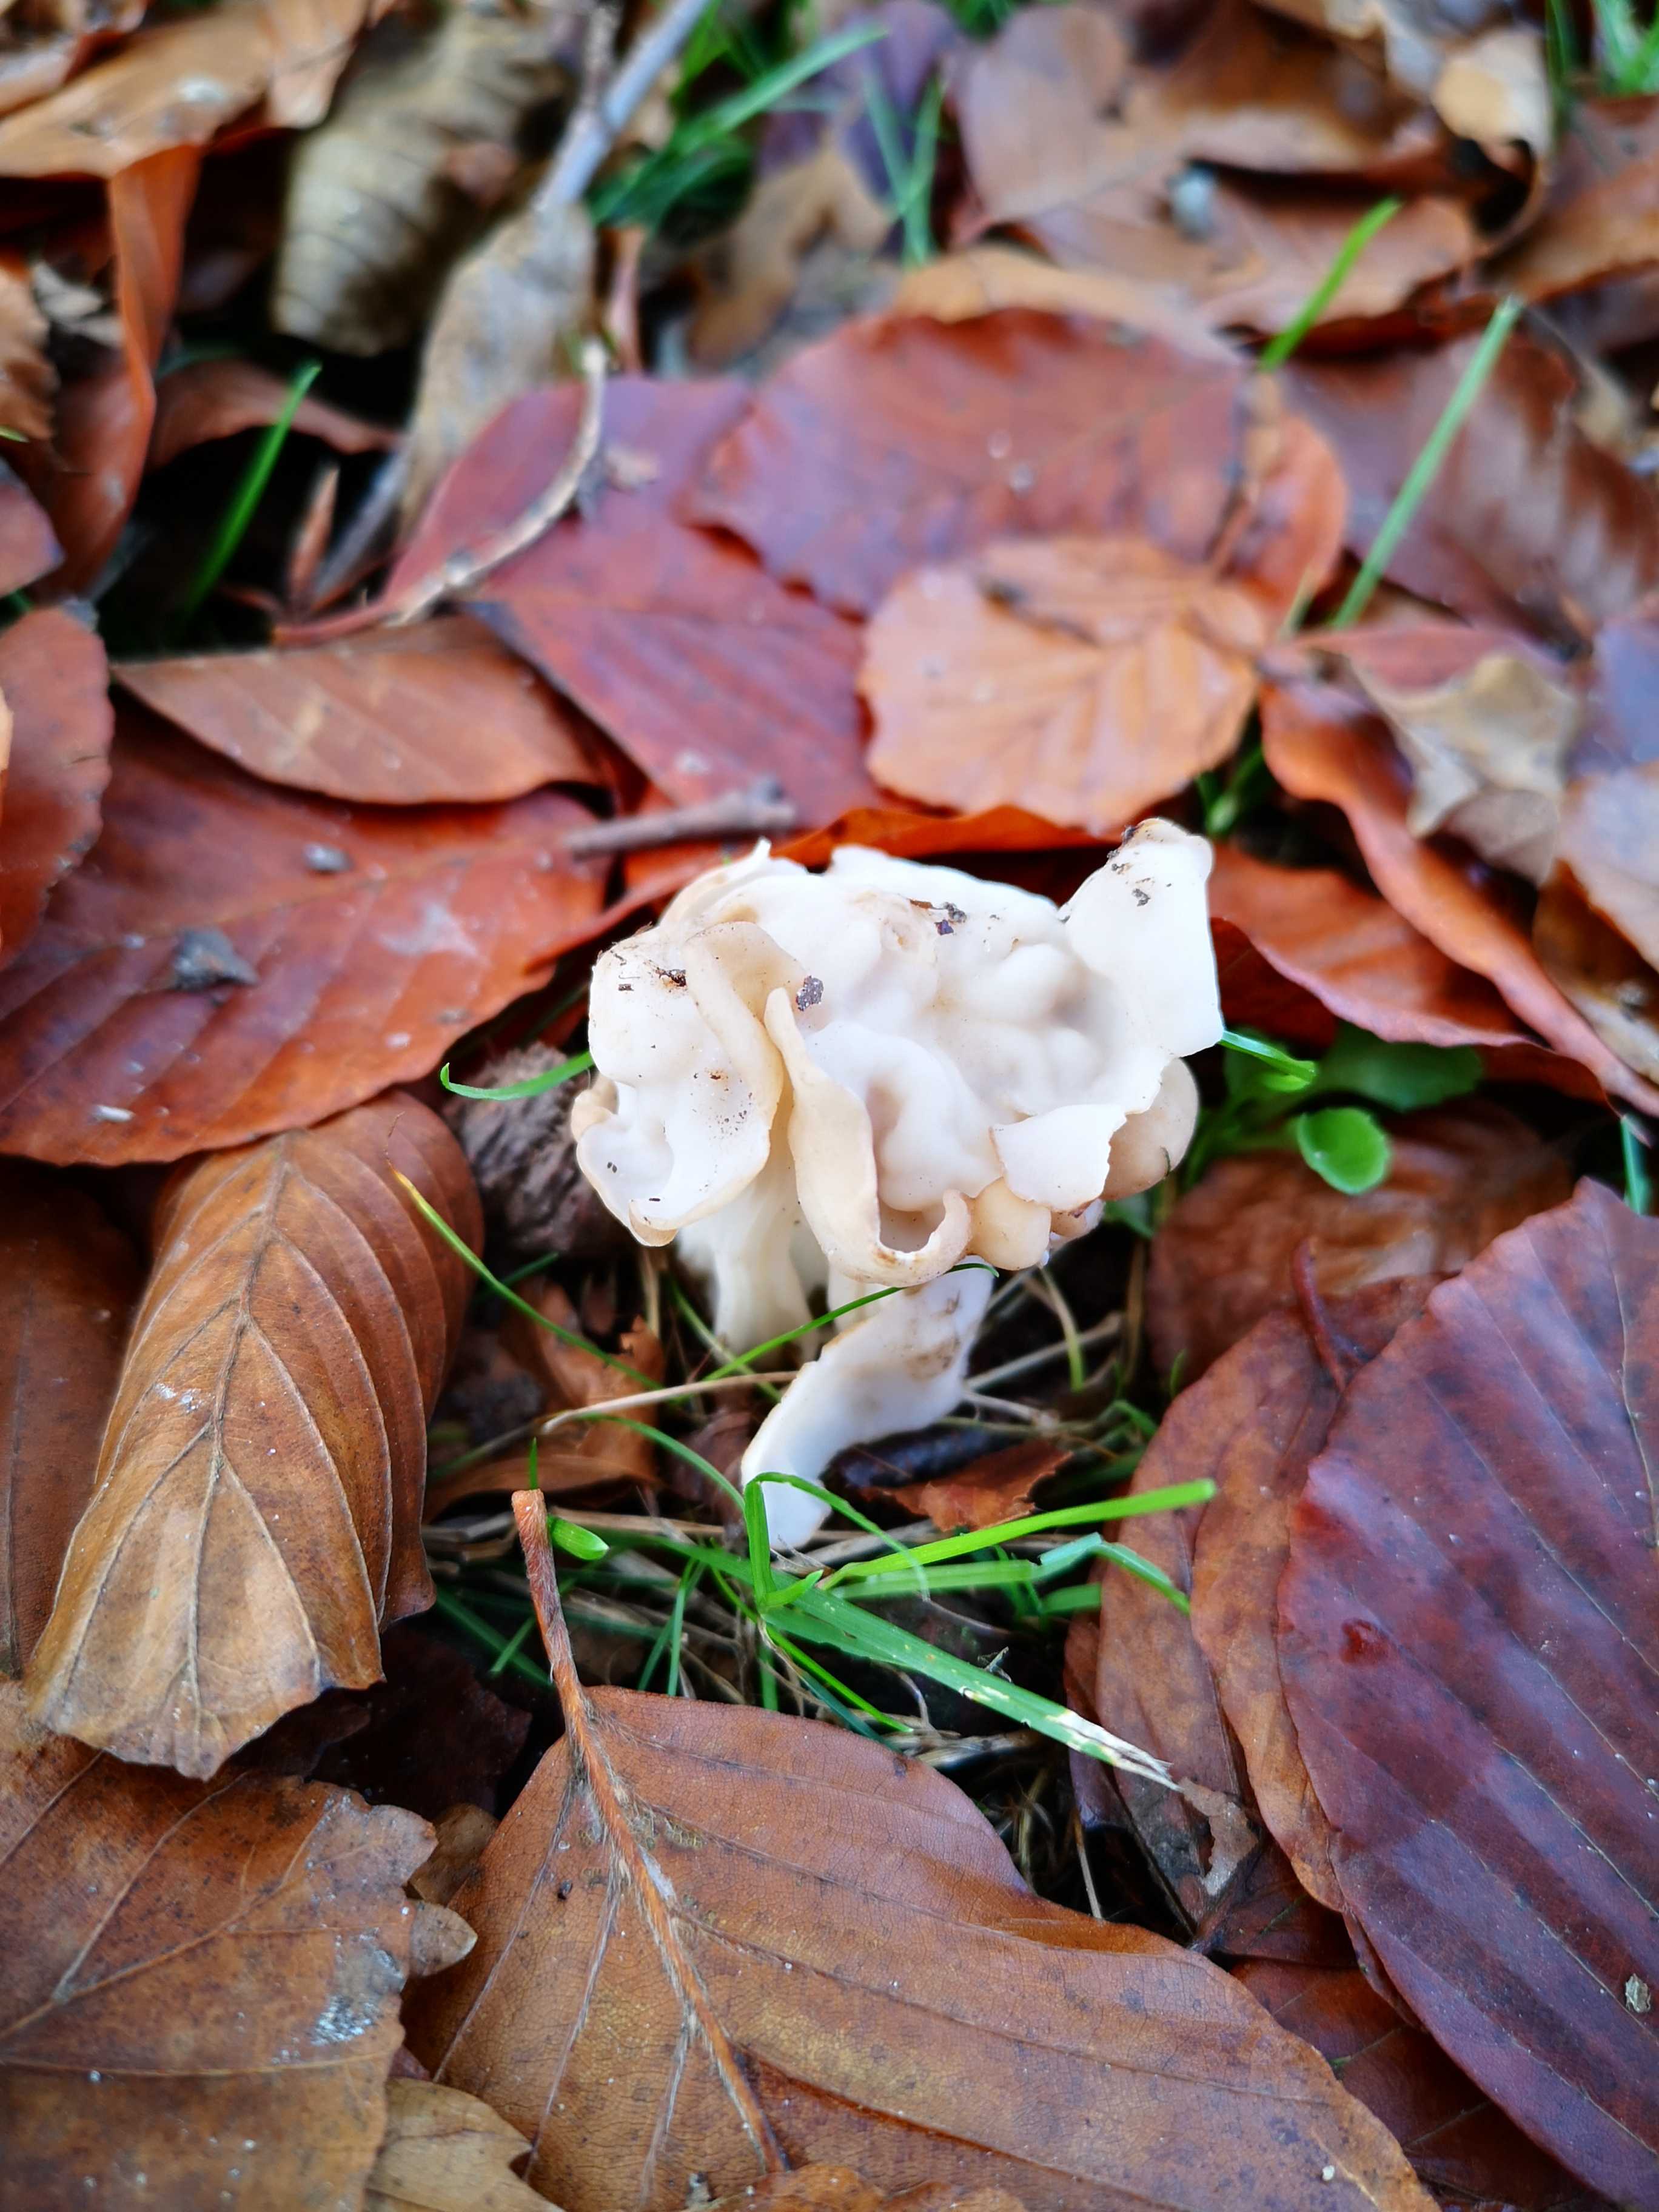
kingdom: Fungi
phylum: Ascomycota
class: Pezizomycetes
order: Pezizales
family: Helvellaceae
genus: Helvella
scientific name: Helvella crispa
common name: kruset foldhat
